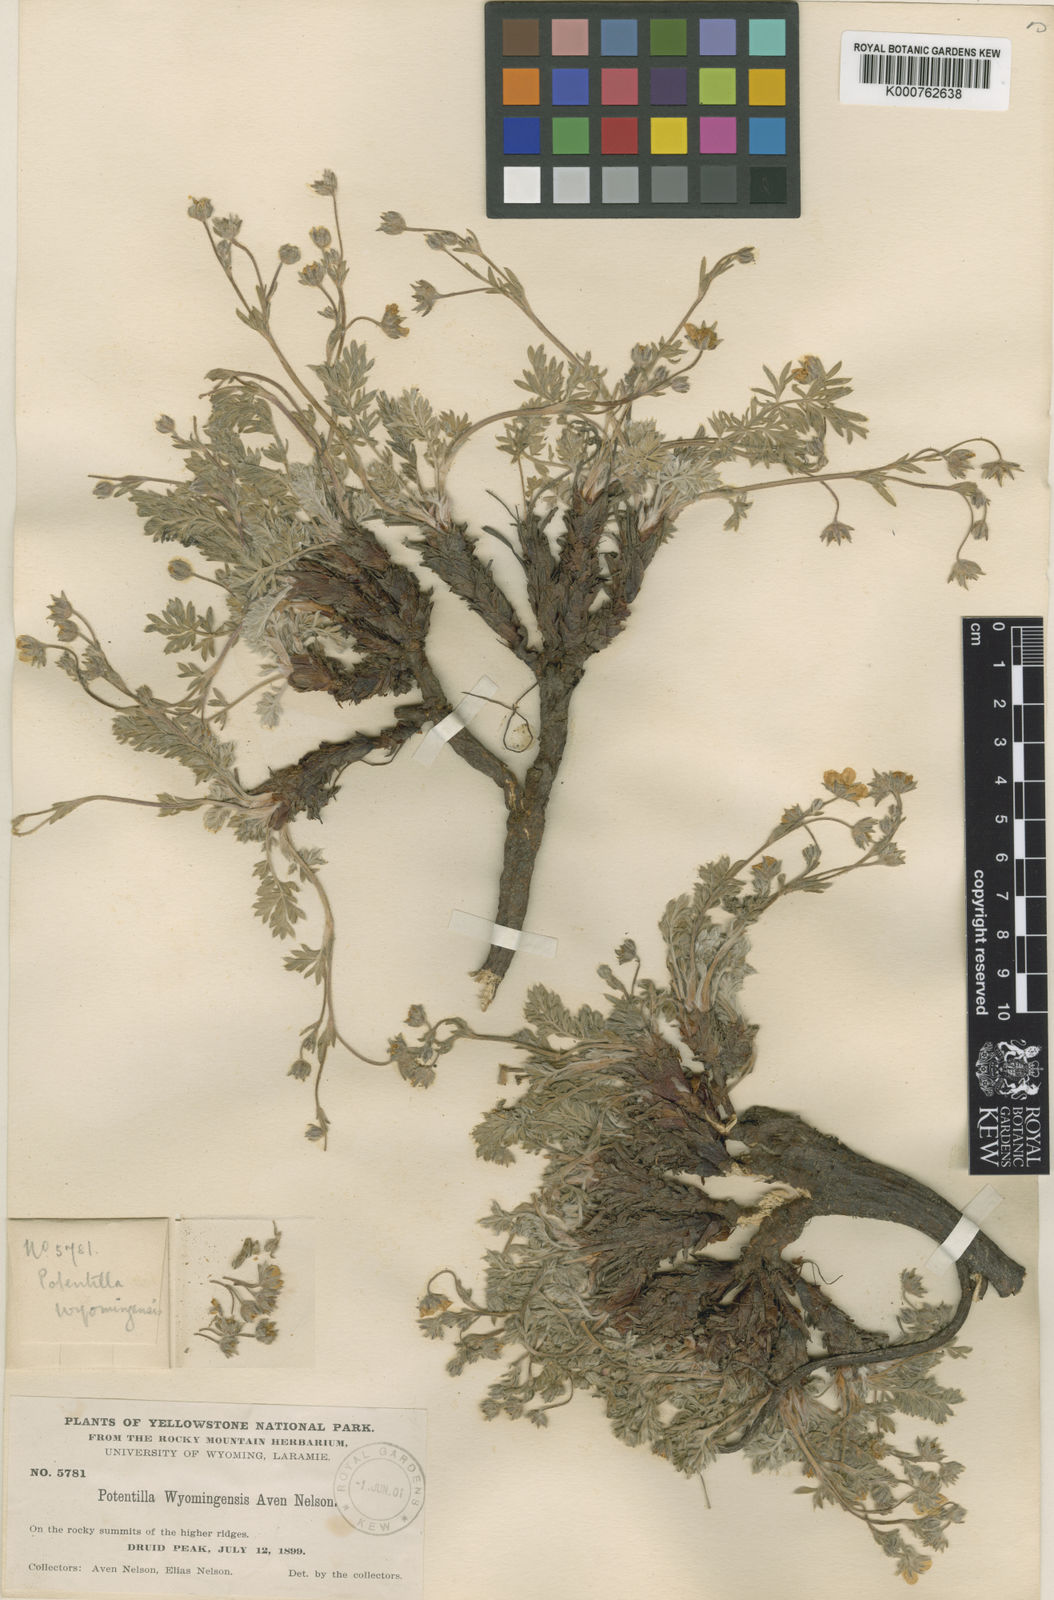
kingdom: Plantae
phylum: Tracheophyta
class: Magnoliopsida
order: Rosales
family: Rosaceae
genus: Potentilla
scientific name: Potentilla ovina
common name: Sheep cinquefoil
